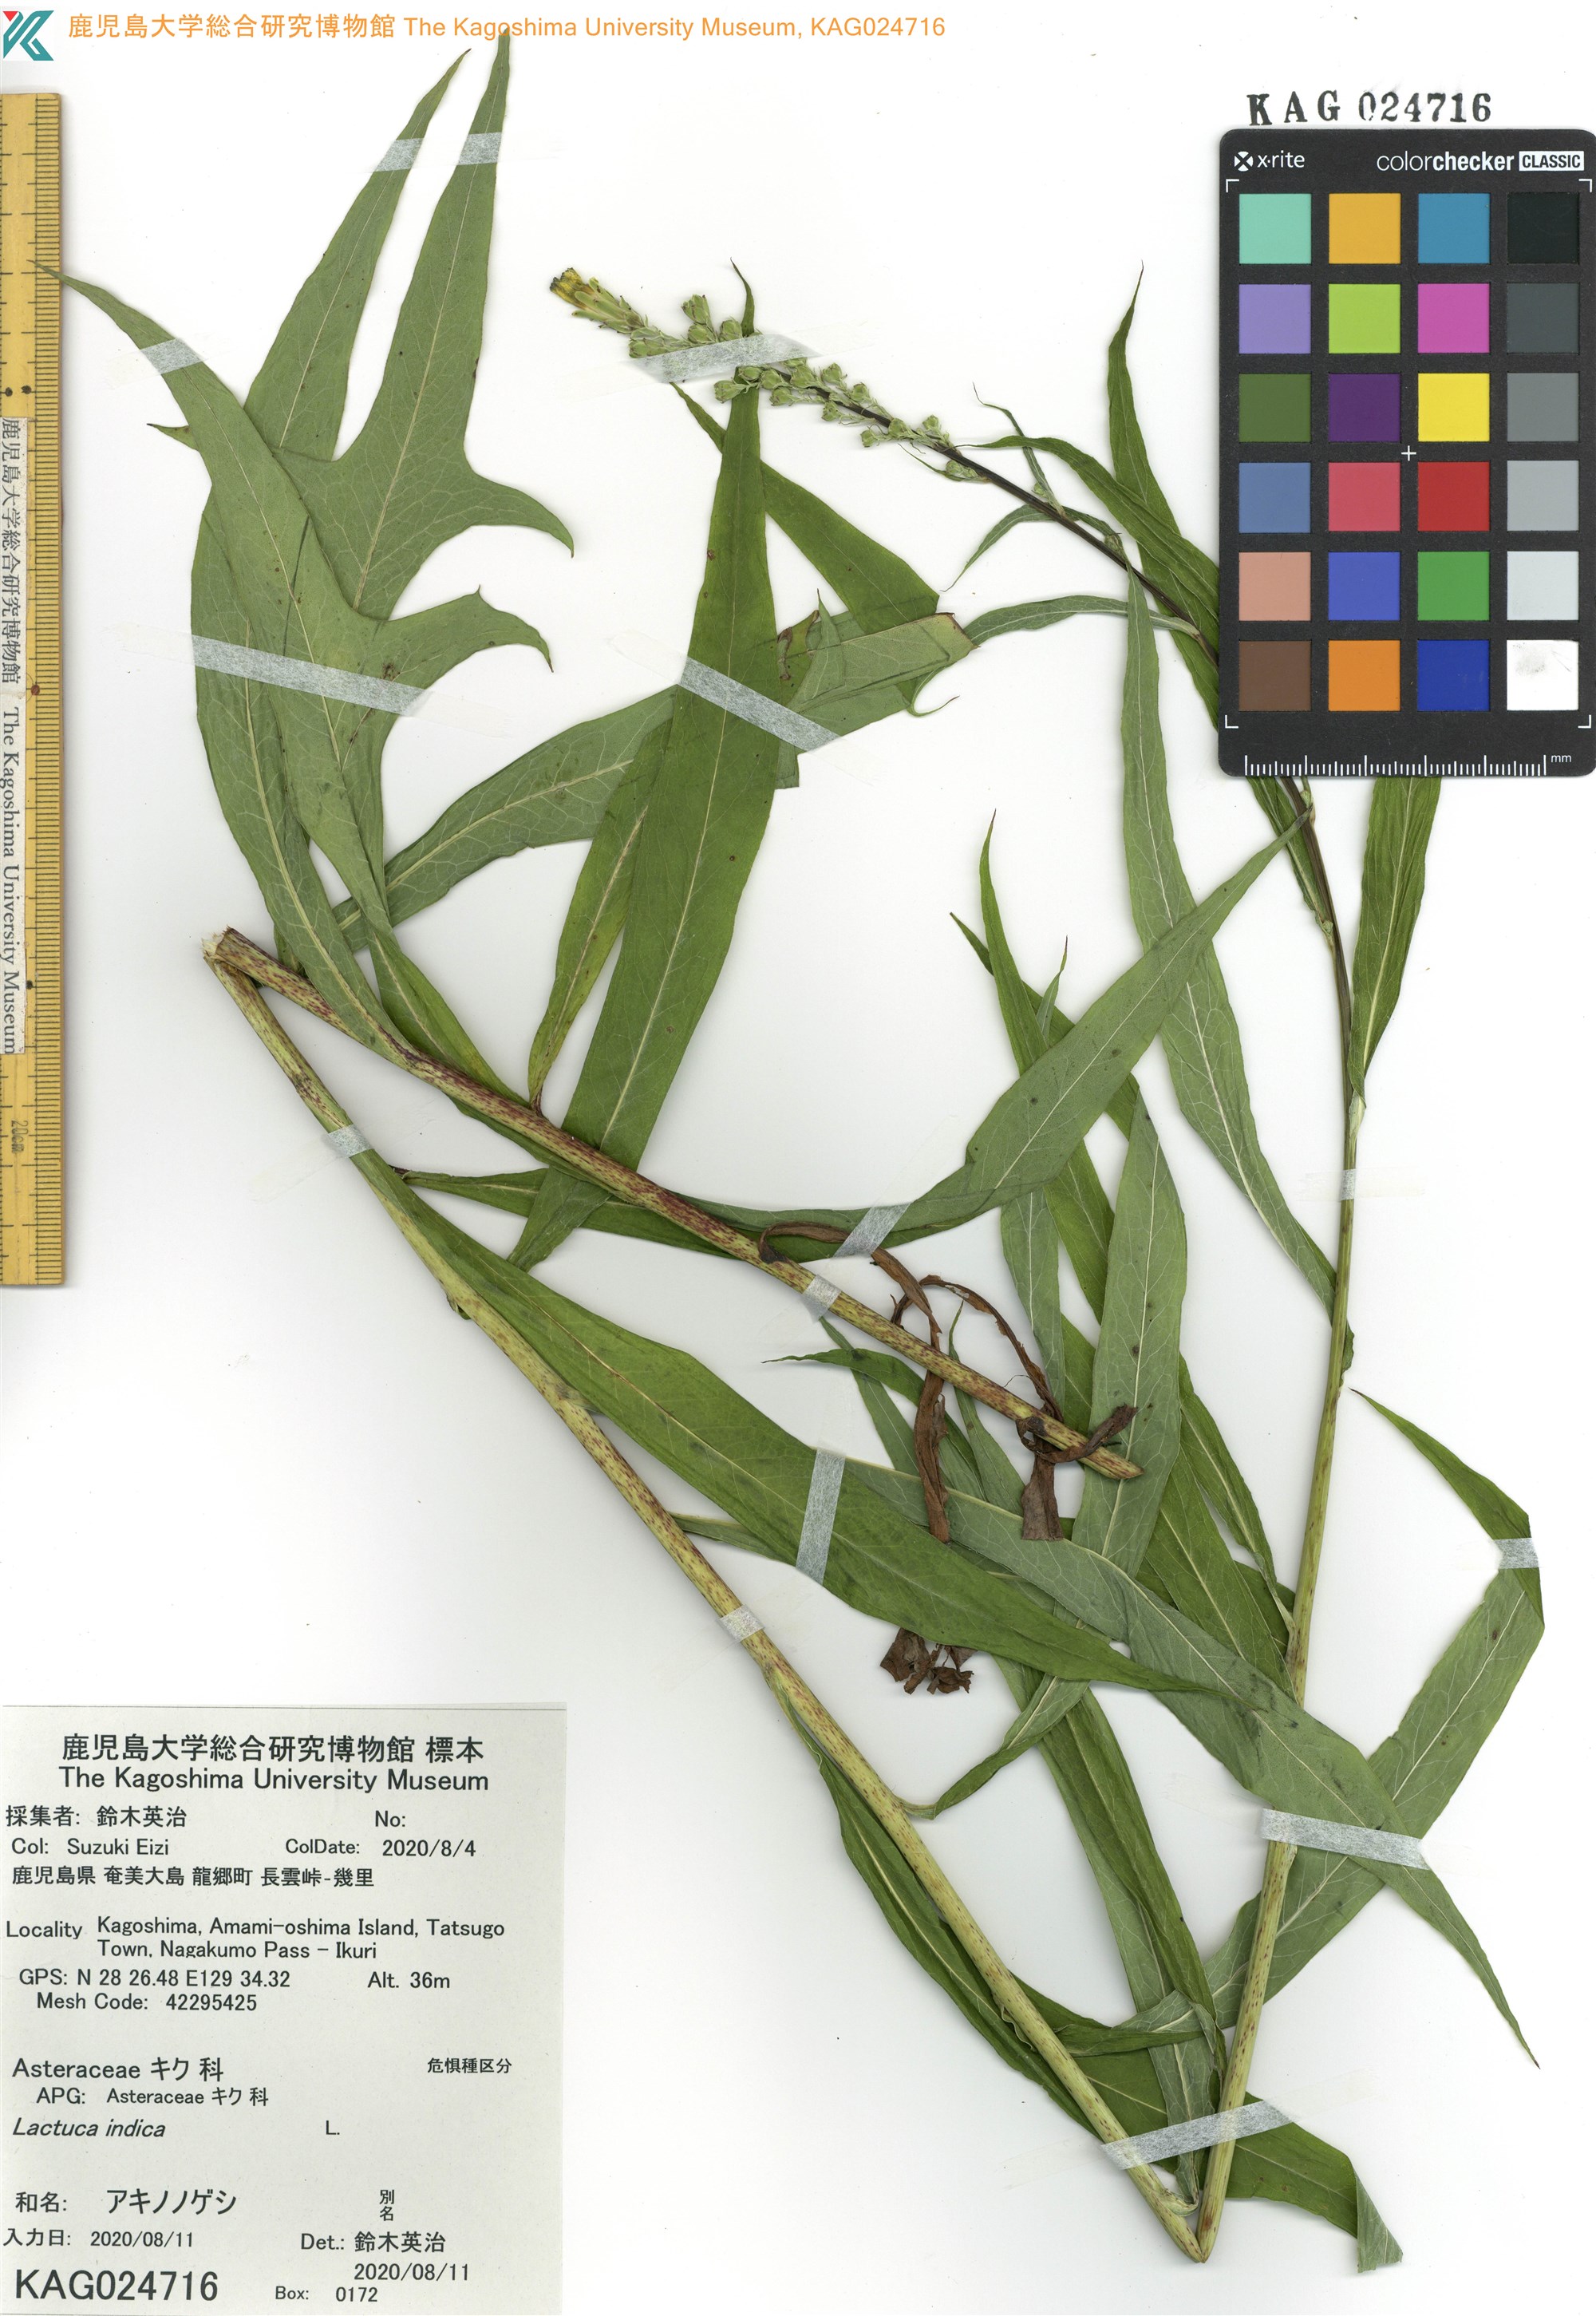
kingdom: Plantae
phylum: Tracheophyta
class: Magnoliopsida
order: Asterales
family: Asteraceae
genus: Lactuca
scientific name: Lactuca indica
